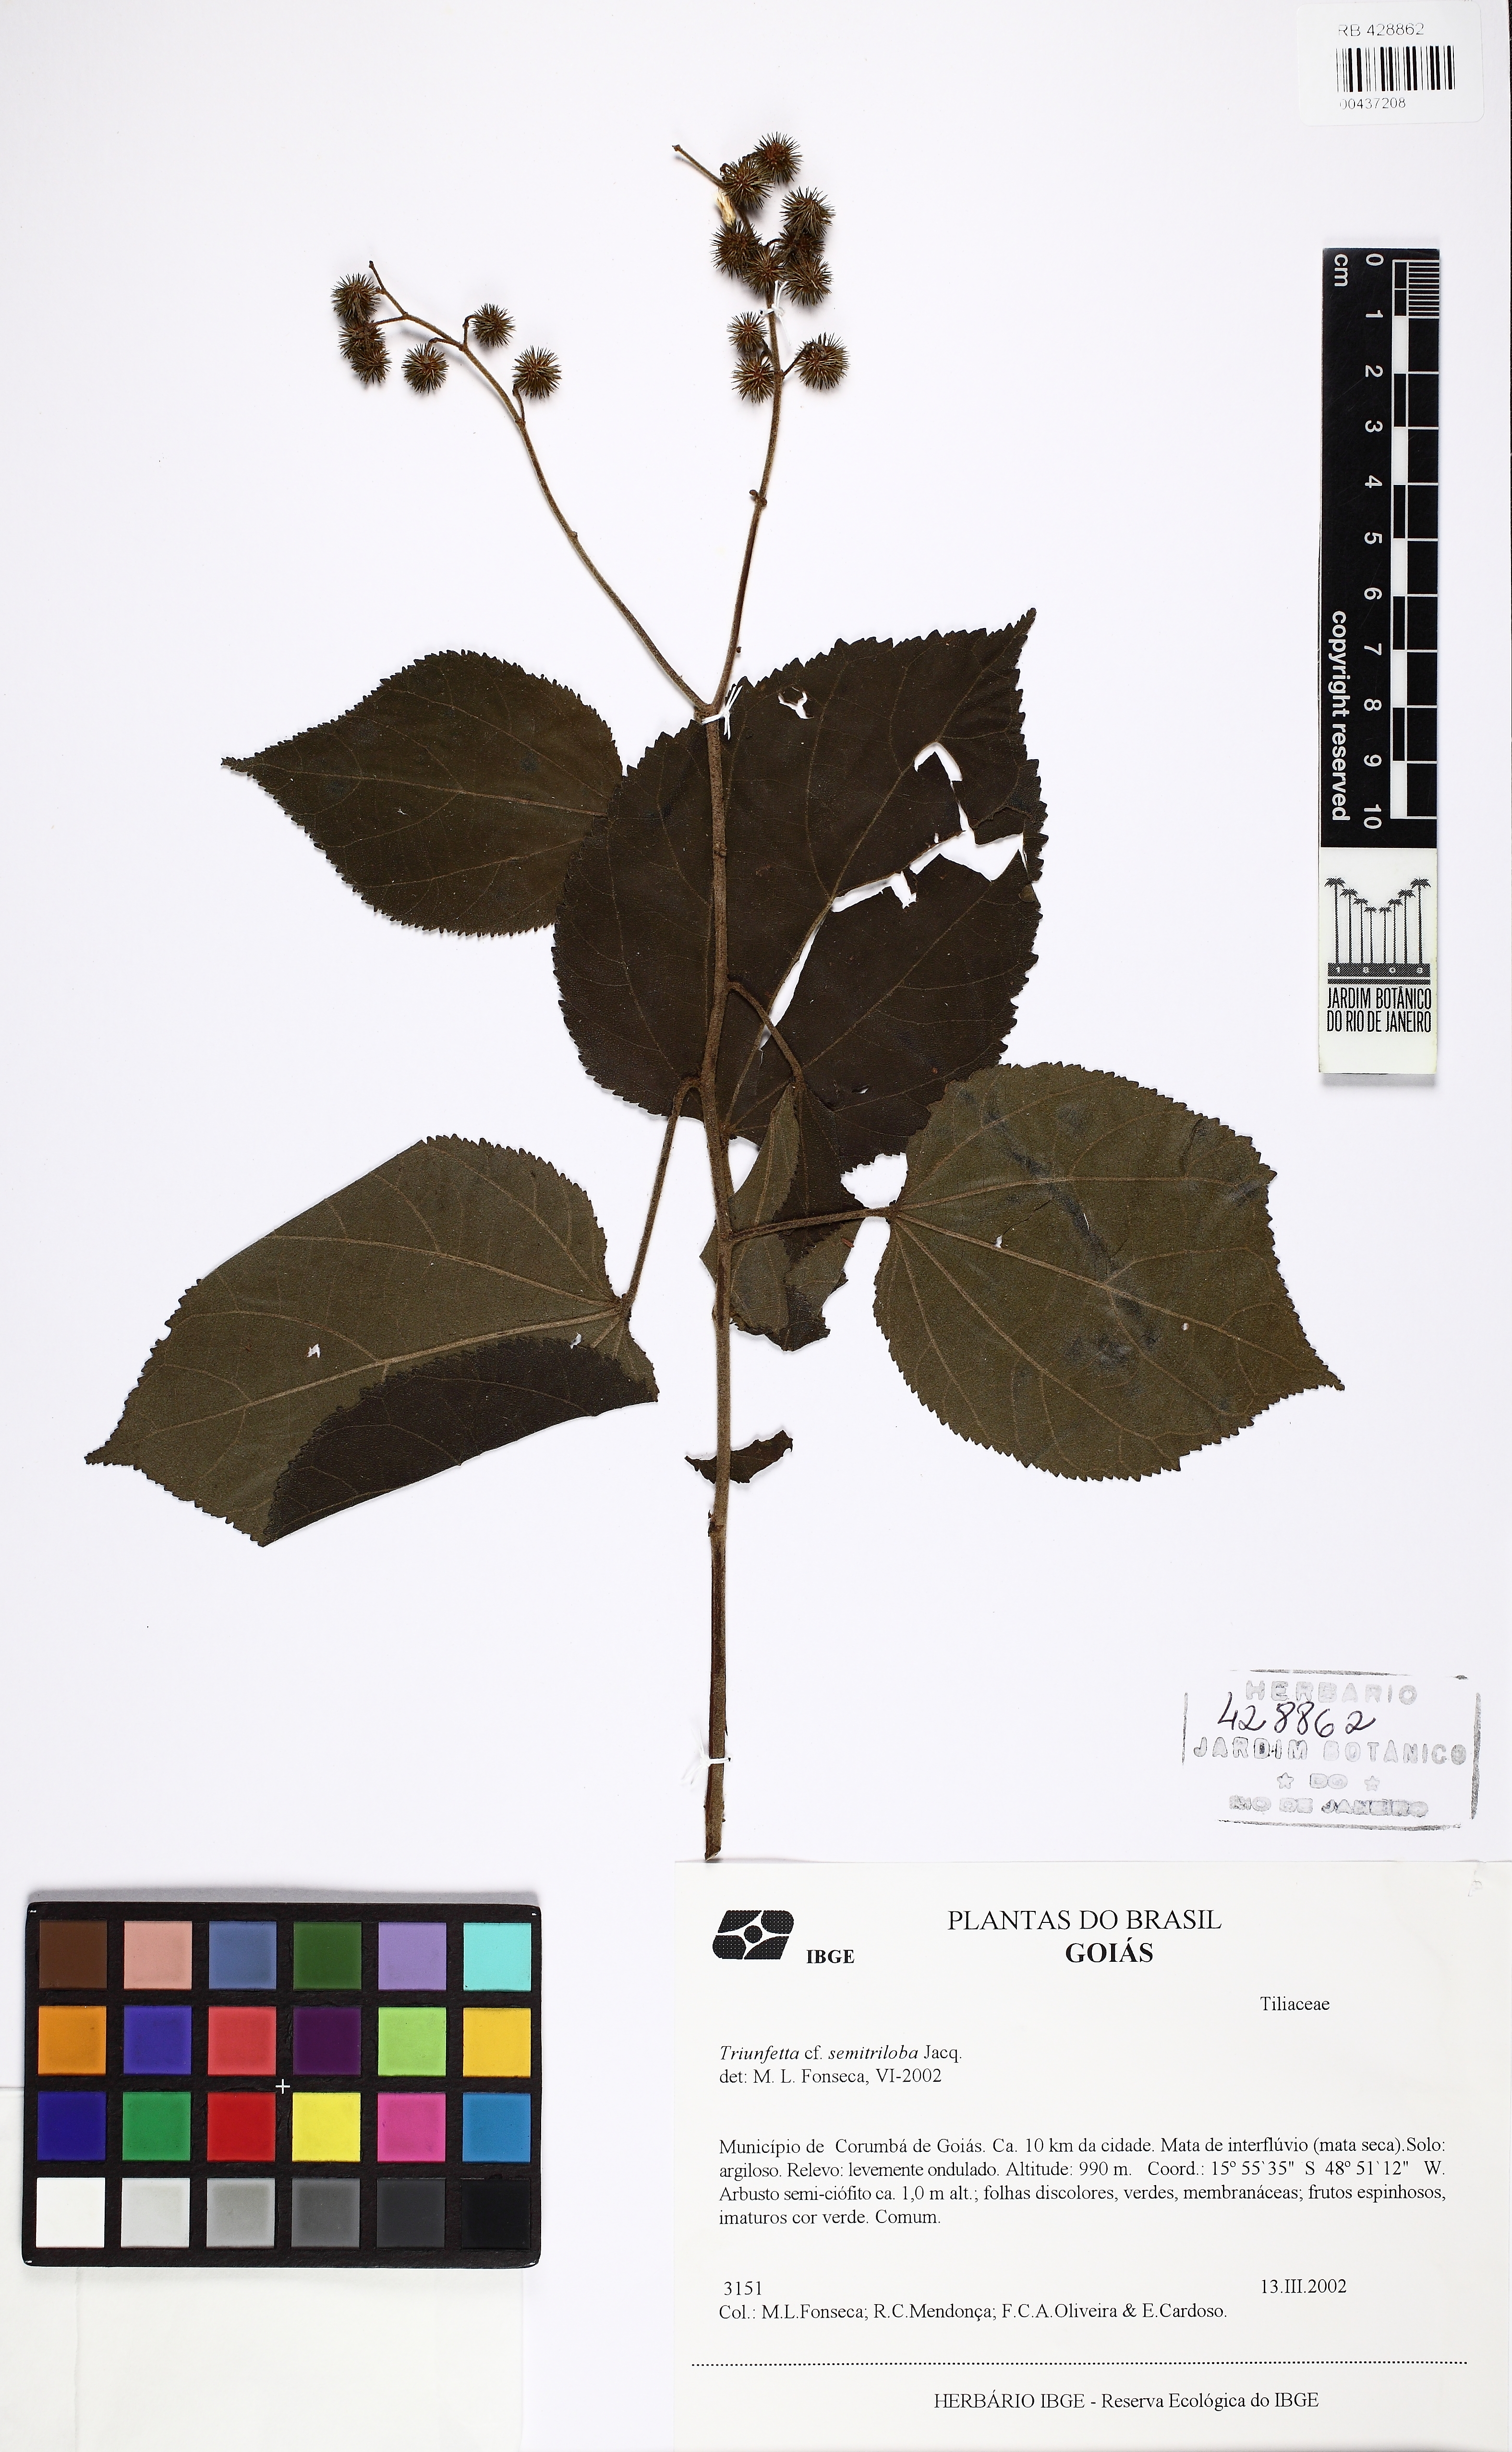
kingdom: Plantae
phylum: Tracheophyta
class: Magnoliopsida
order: Malvales
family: Malvaceae
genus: Triumfetta
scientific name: Triumfetta althaeoides
